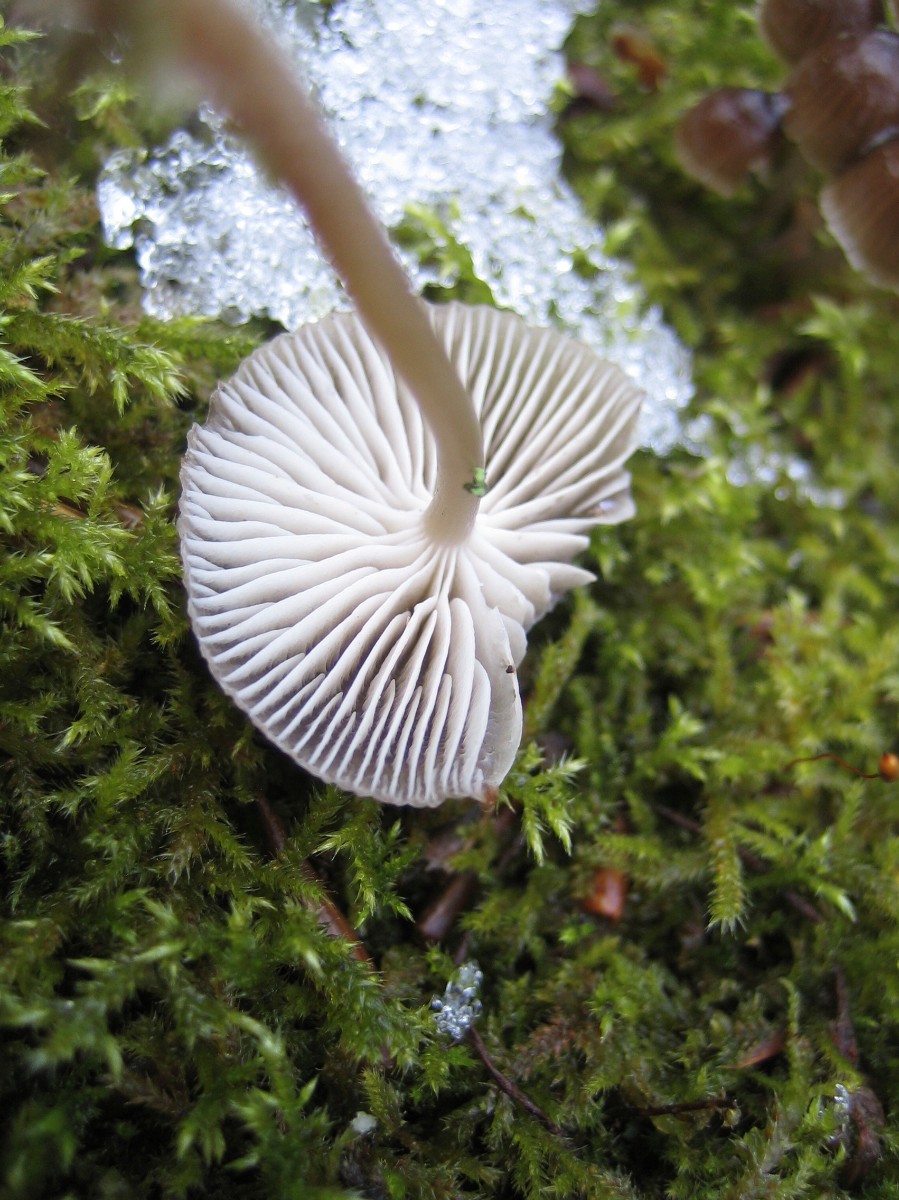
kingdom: Fungi
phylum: Basidiomycota
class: Agaricomycetes
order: Agaricales
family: Mycenaceae
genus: Mycena
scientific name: Mycena tintinnabulum
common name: vinter-huesvamp
